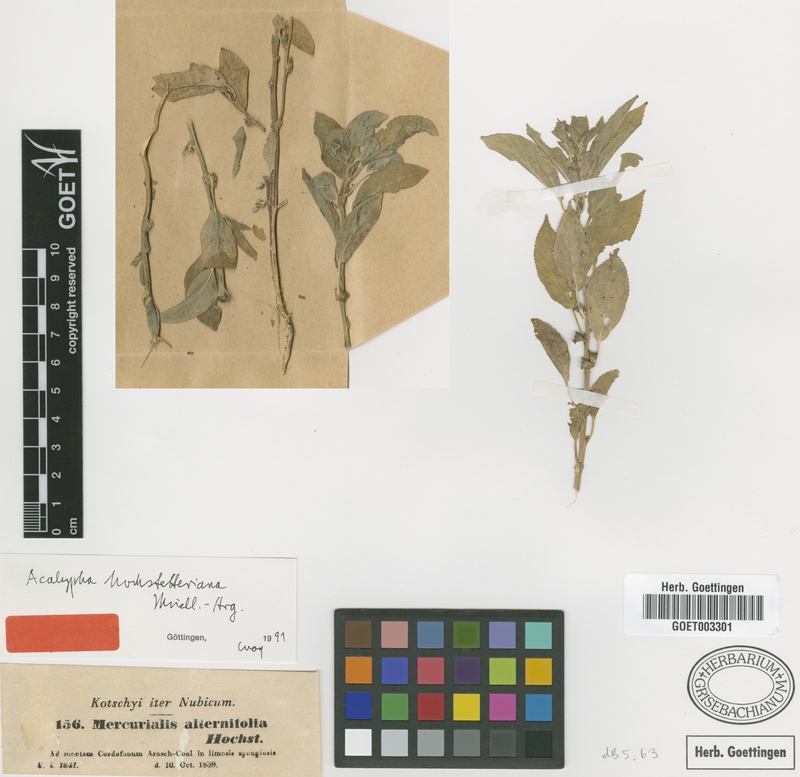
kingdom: Plantae
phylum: Tracheophyta
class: Magnoliopsida
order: Malpighiales
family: Euphorbiaceae
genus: Acalypha
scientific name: Acalypha hochstetteriana
